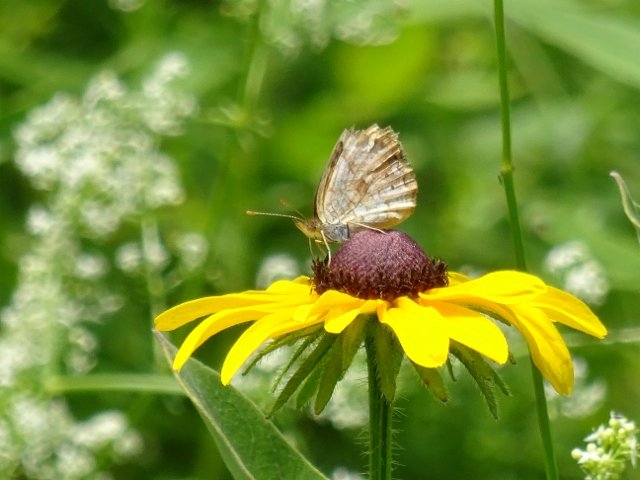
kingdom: Animalia
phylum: Arthropoda
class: Insecta
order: Lepidoptera
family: Nymphalidae
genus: Phyciodes
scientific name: Phyciodes tharos
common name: Northern Crescent
